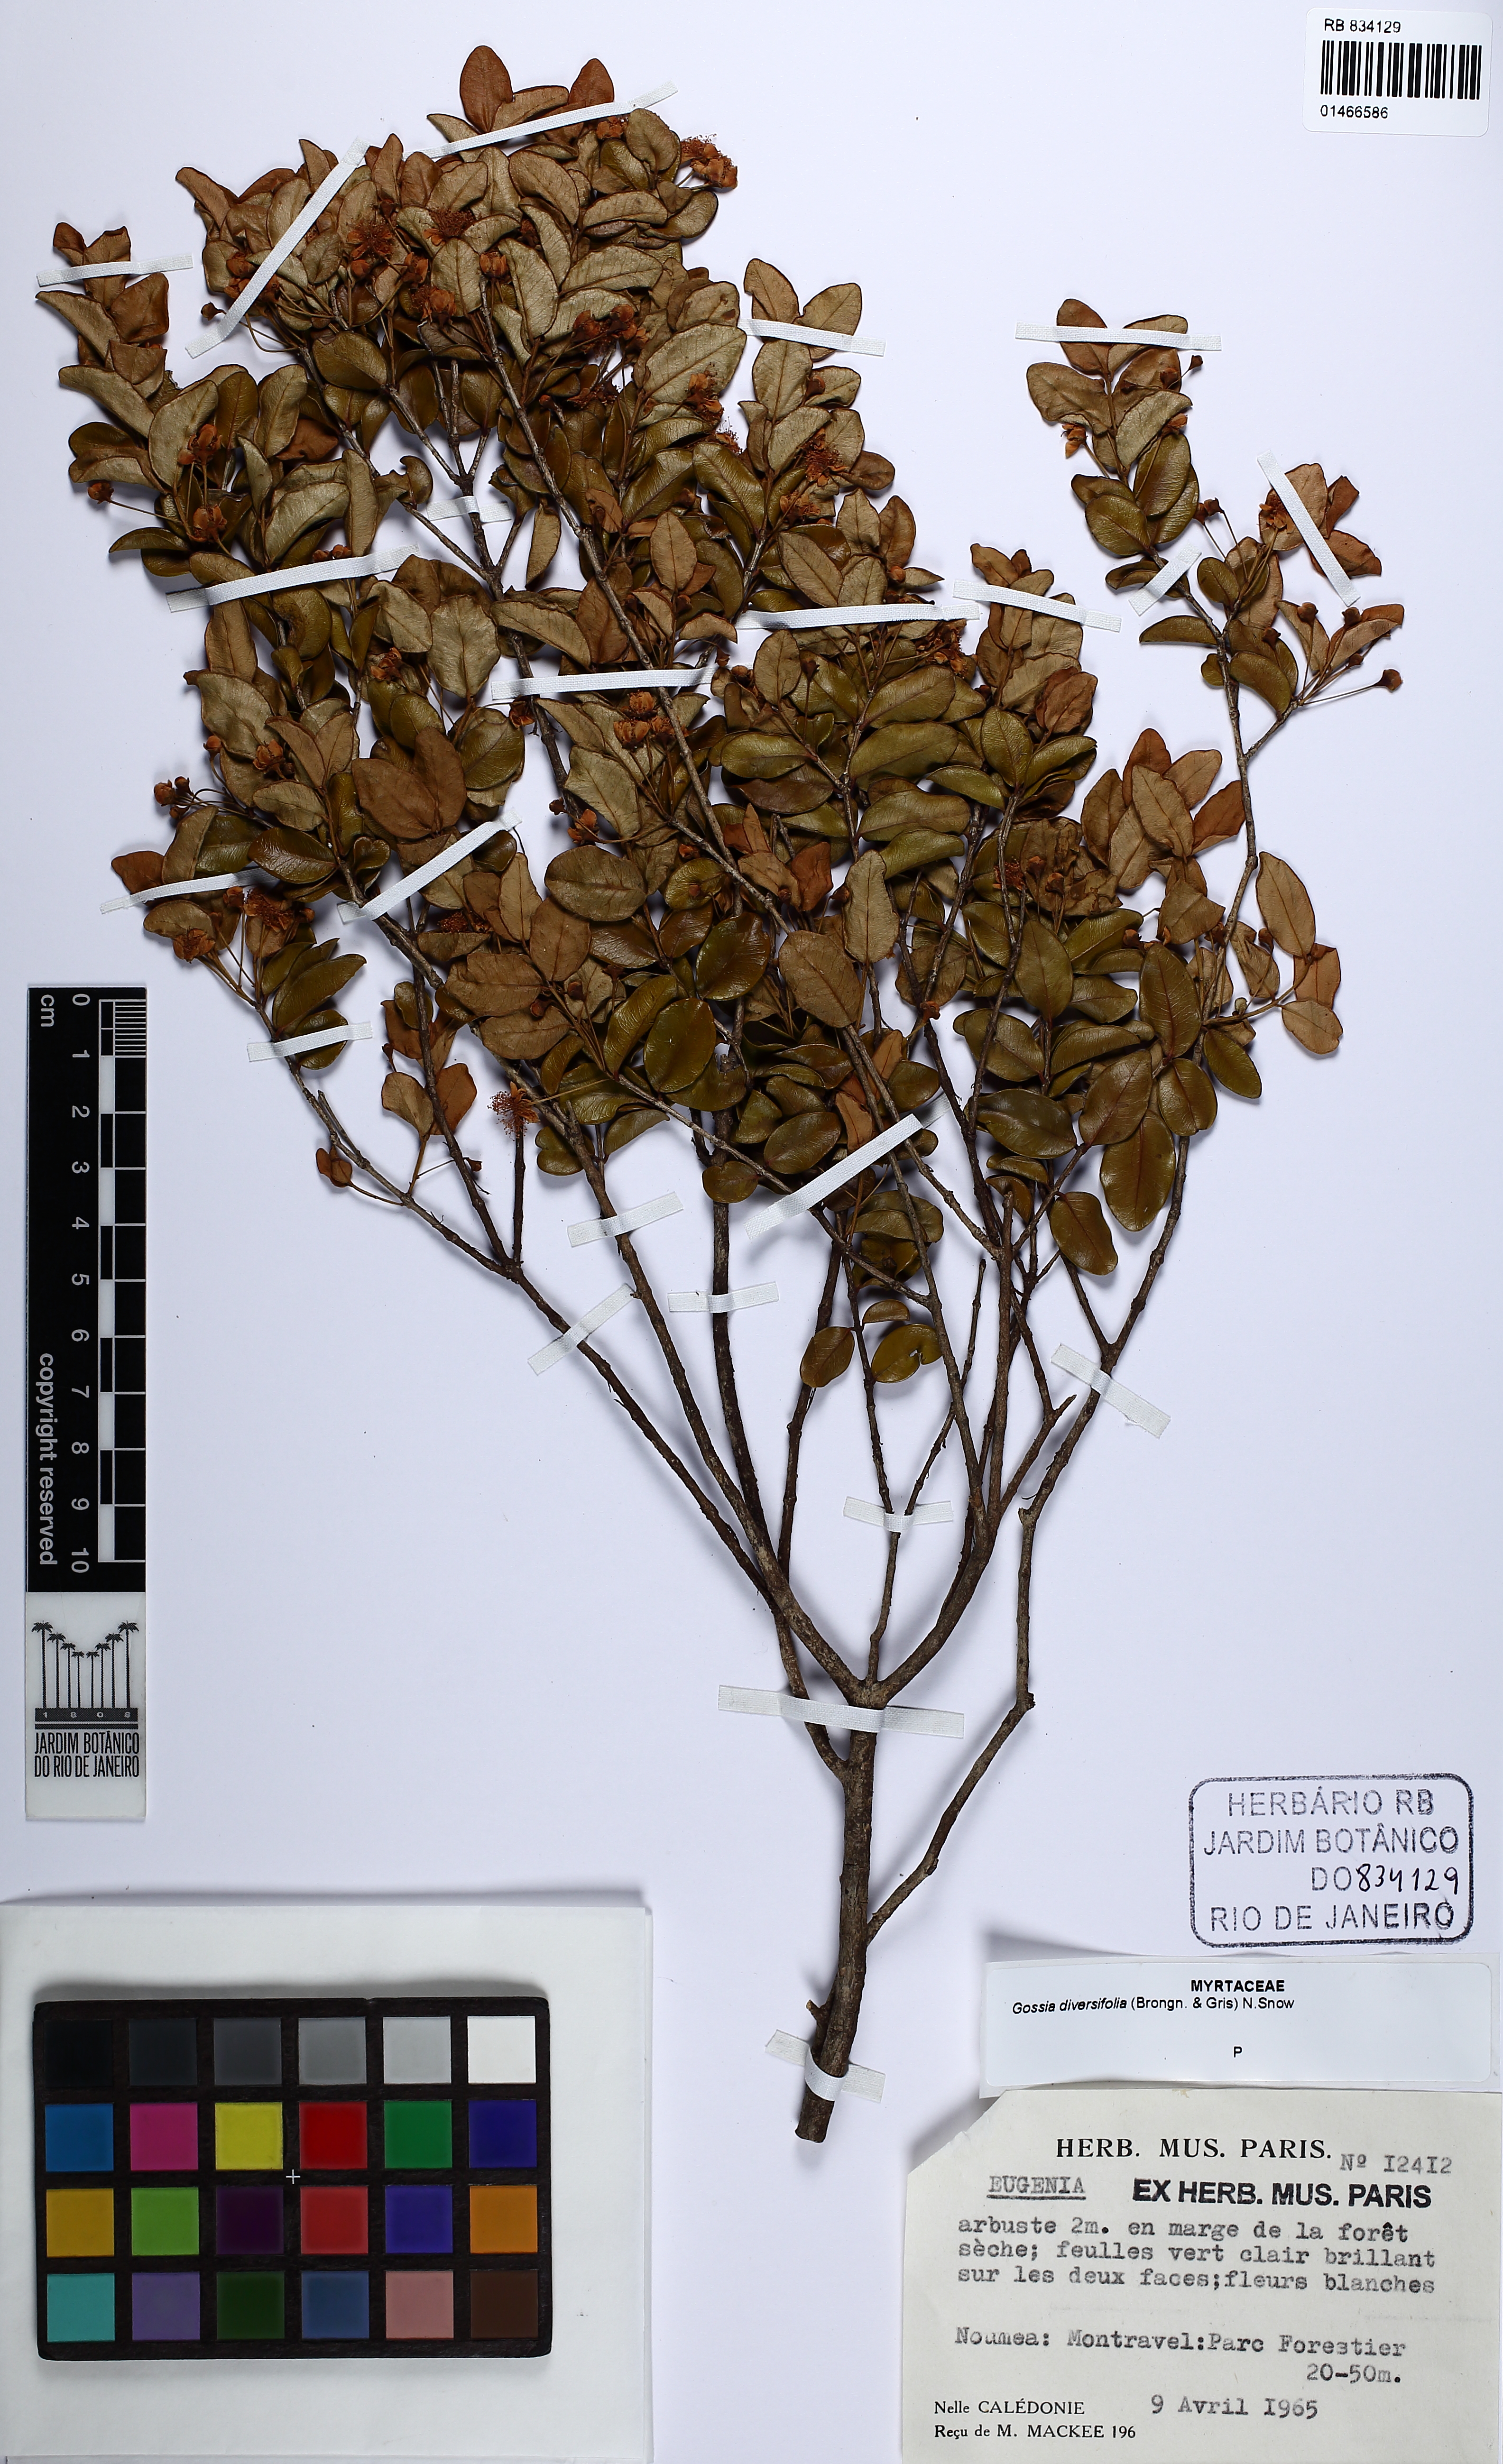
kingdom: Plantae
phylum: Tracheophyta
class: Magnoliopsida
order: Myrtales
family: Myrtaceae
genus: Gossia
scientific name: Gossia diversifolia
